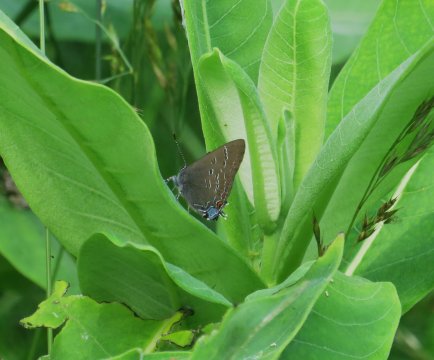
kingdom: Animalia
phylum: Arthropoda
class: Insecta
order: Lepidoptera
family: Lycaenidae
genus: Satyrium
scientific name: Satyrium calanus
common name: Banded Hairstreak
